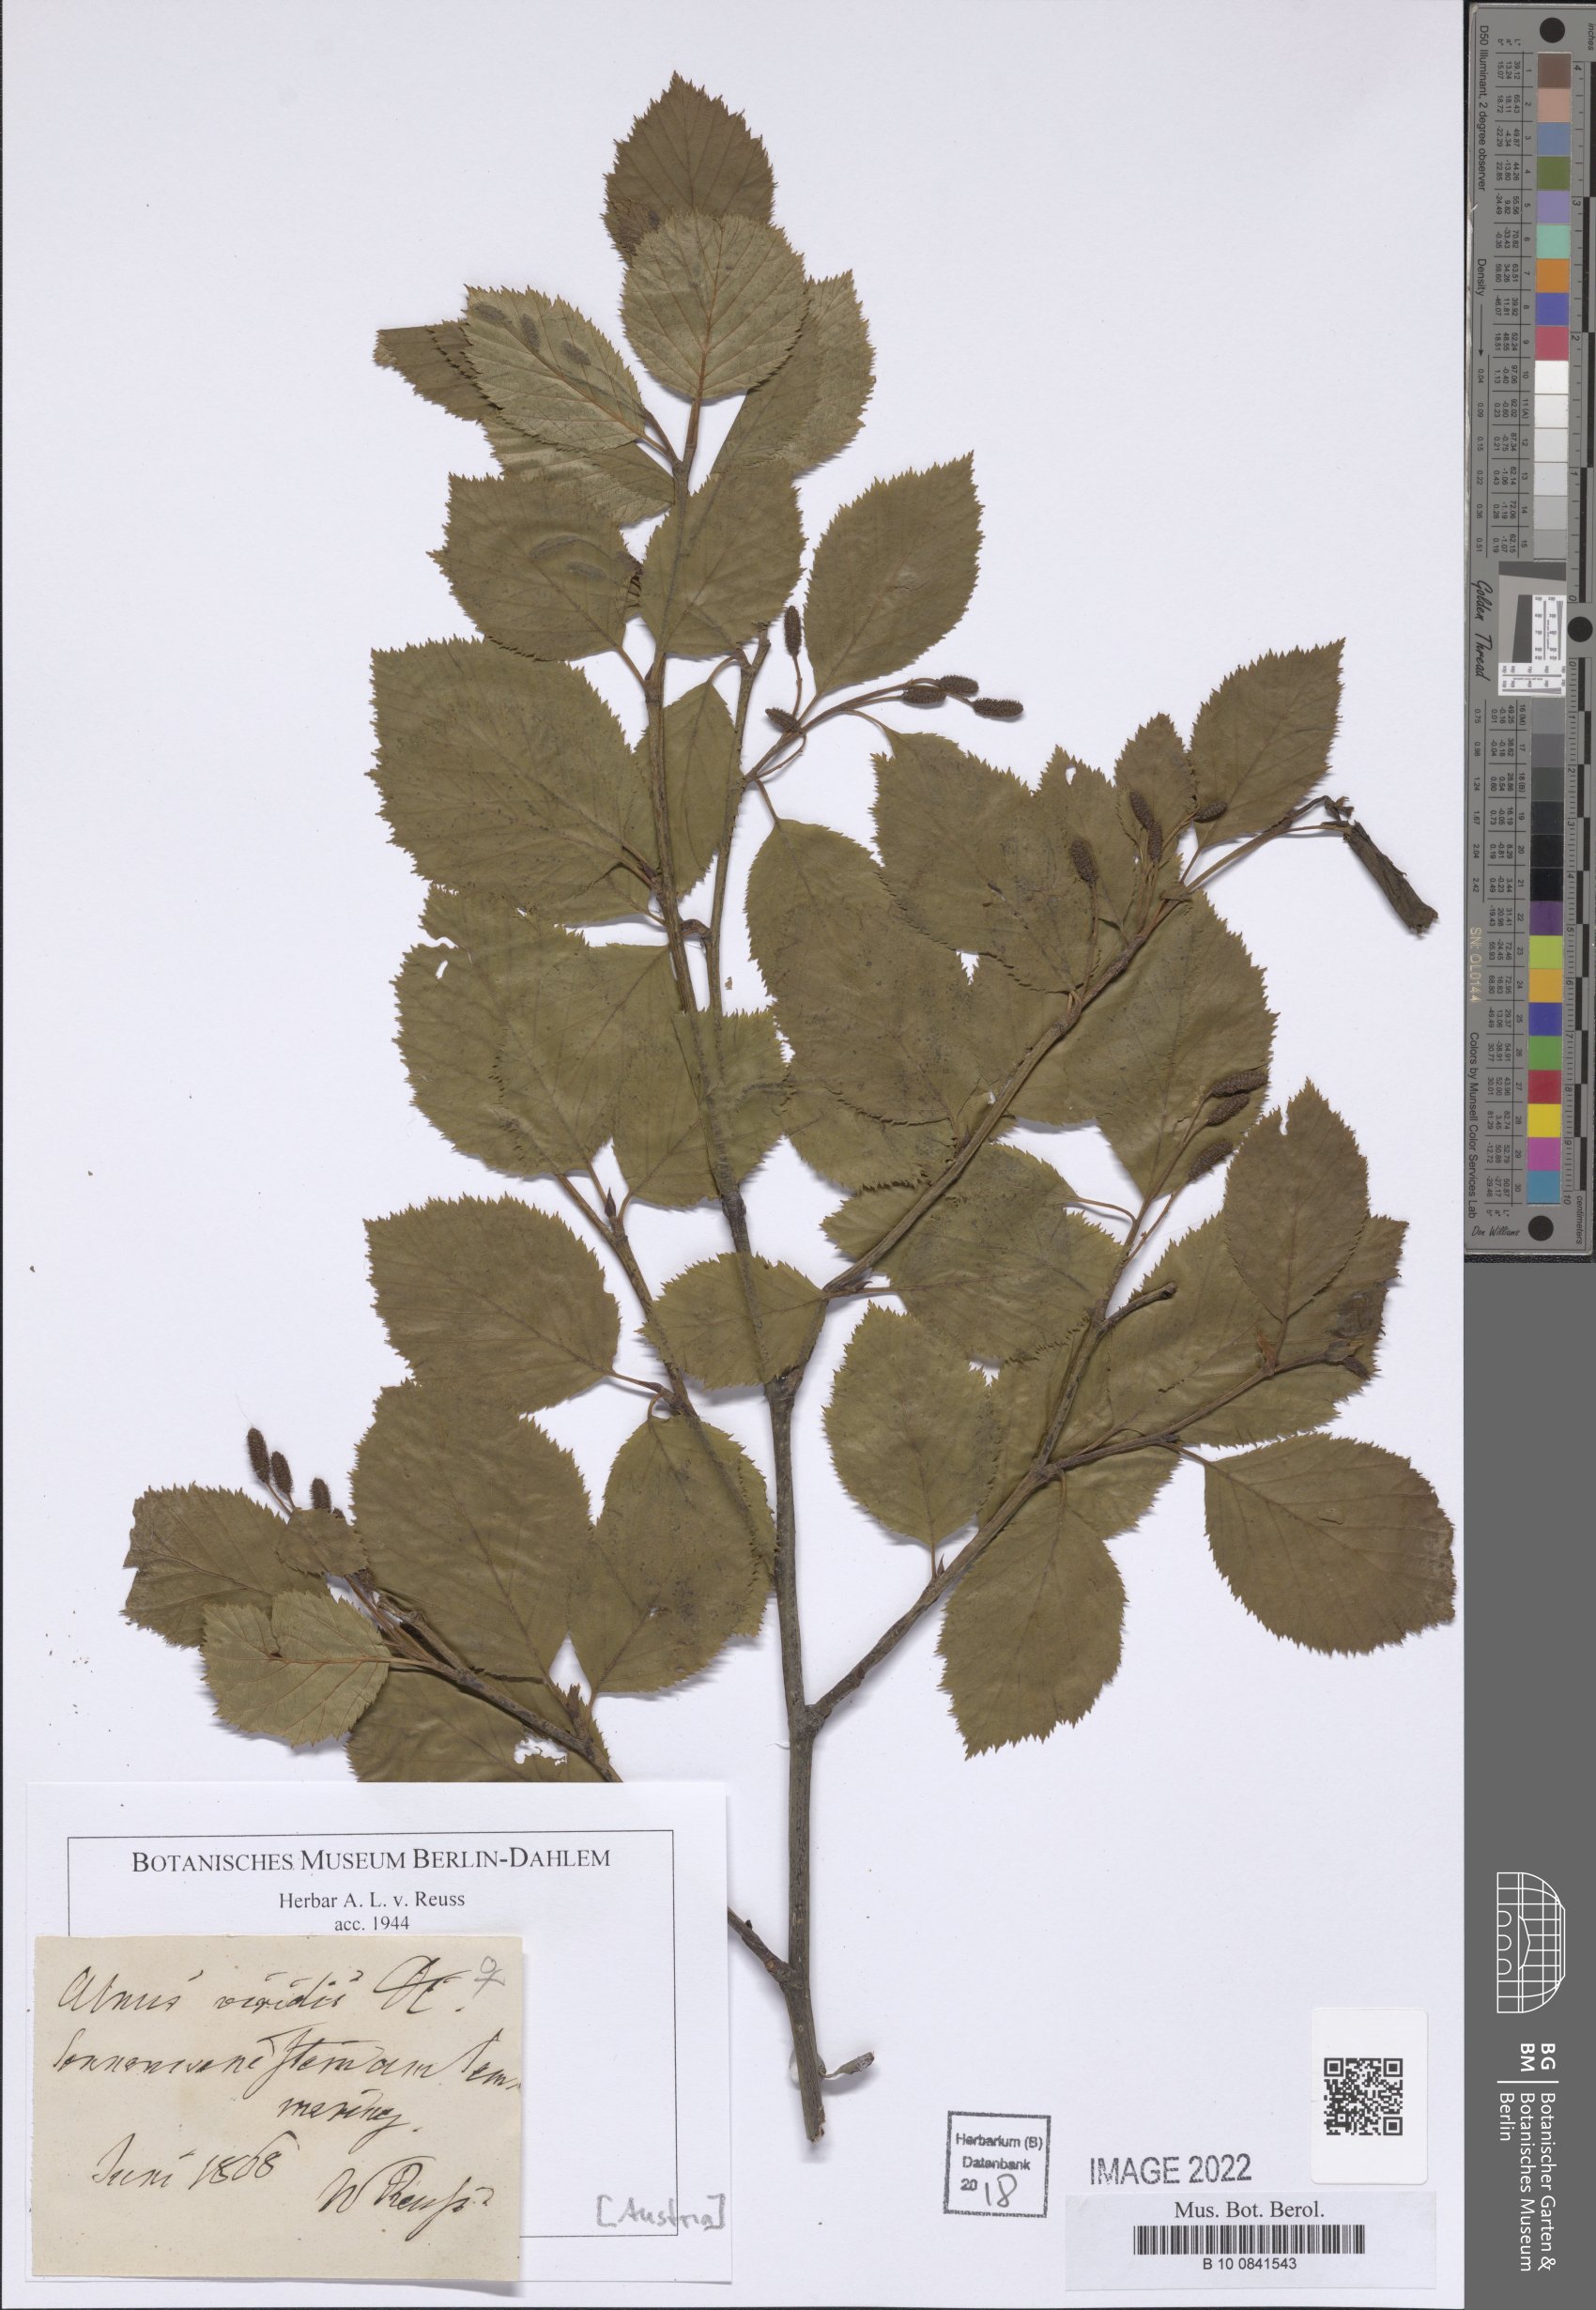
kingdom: Plantae
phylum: Tracheophyta
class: Magnoliopsida
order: Fagales
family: Betulaceae
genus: Alnus
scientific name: Alnus alnobetula
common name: Green alder
